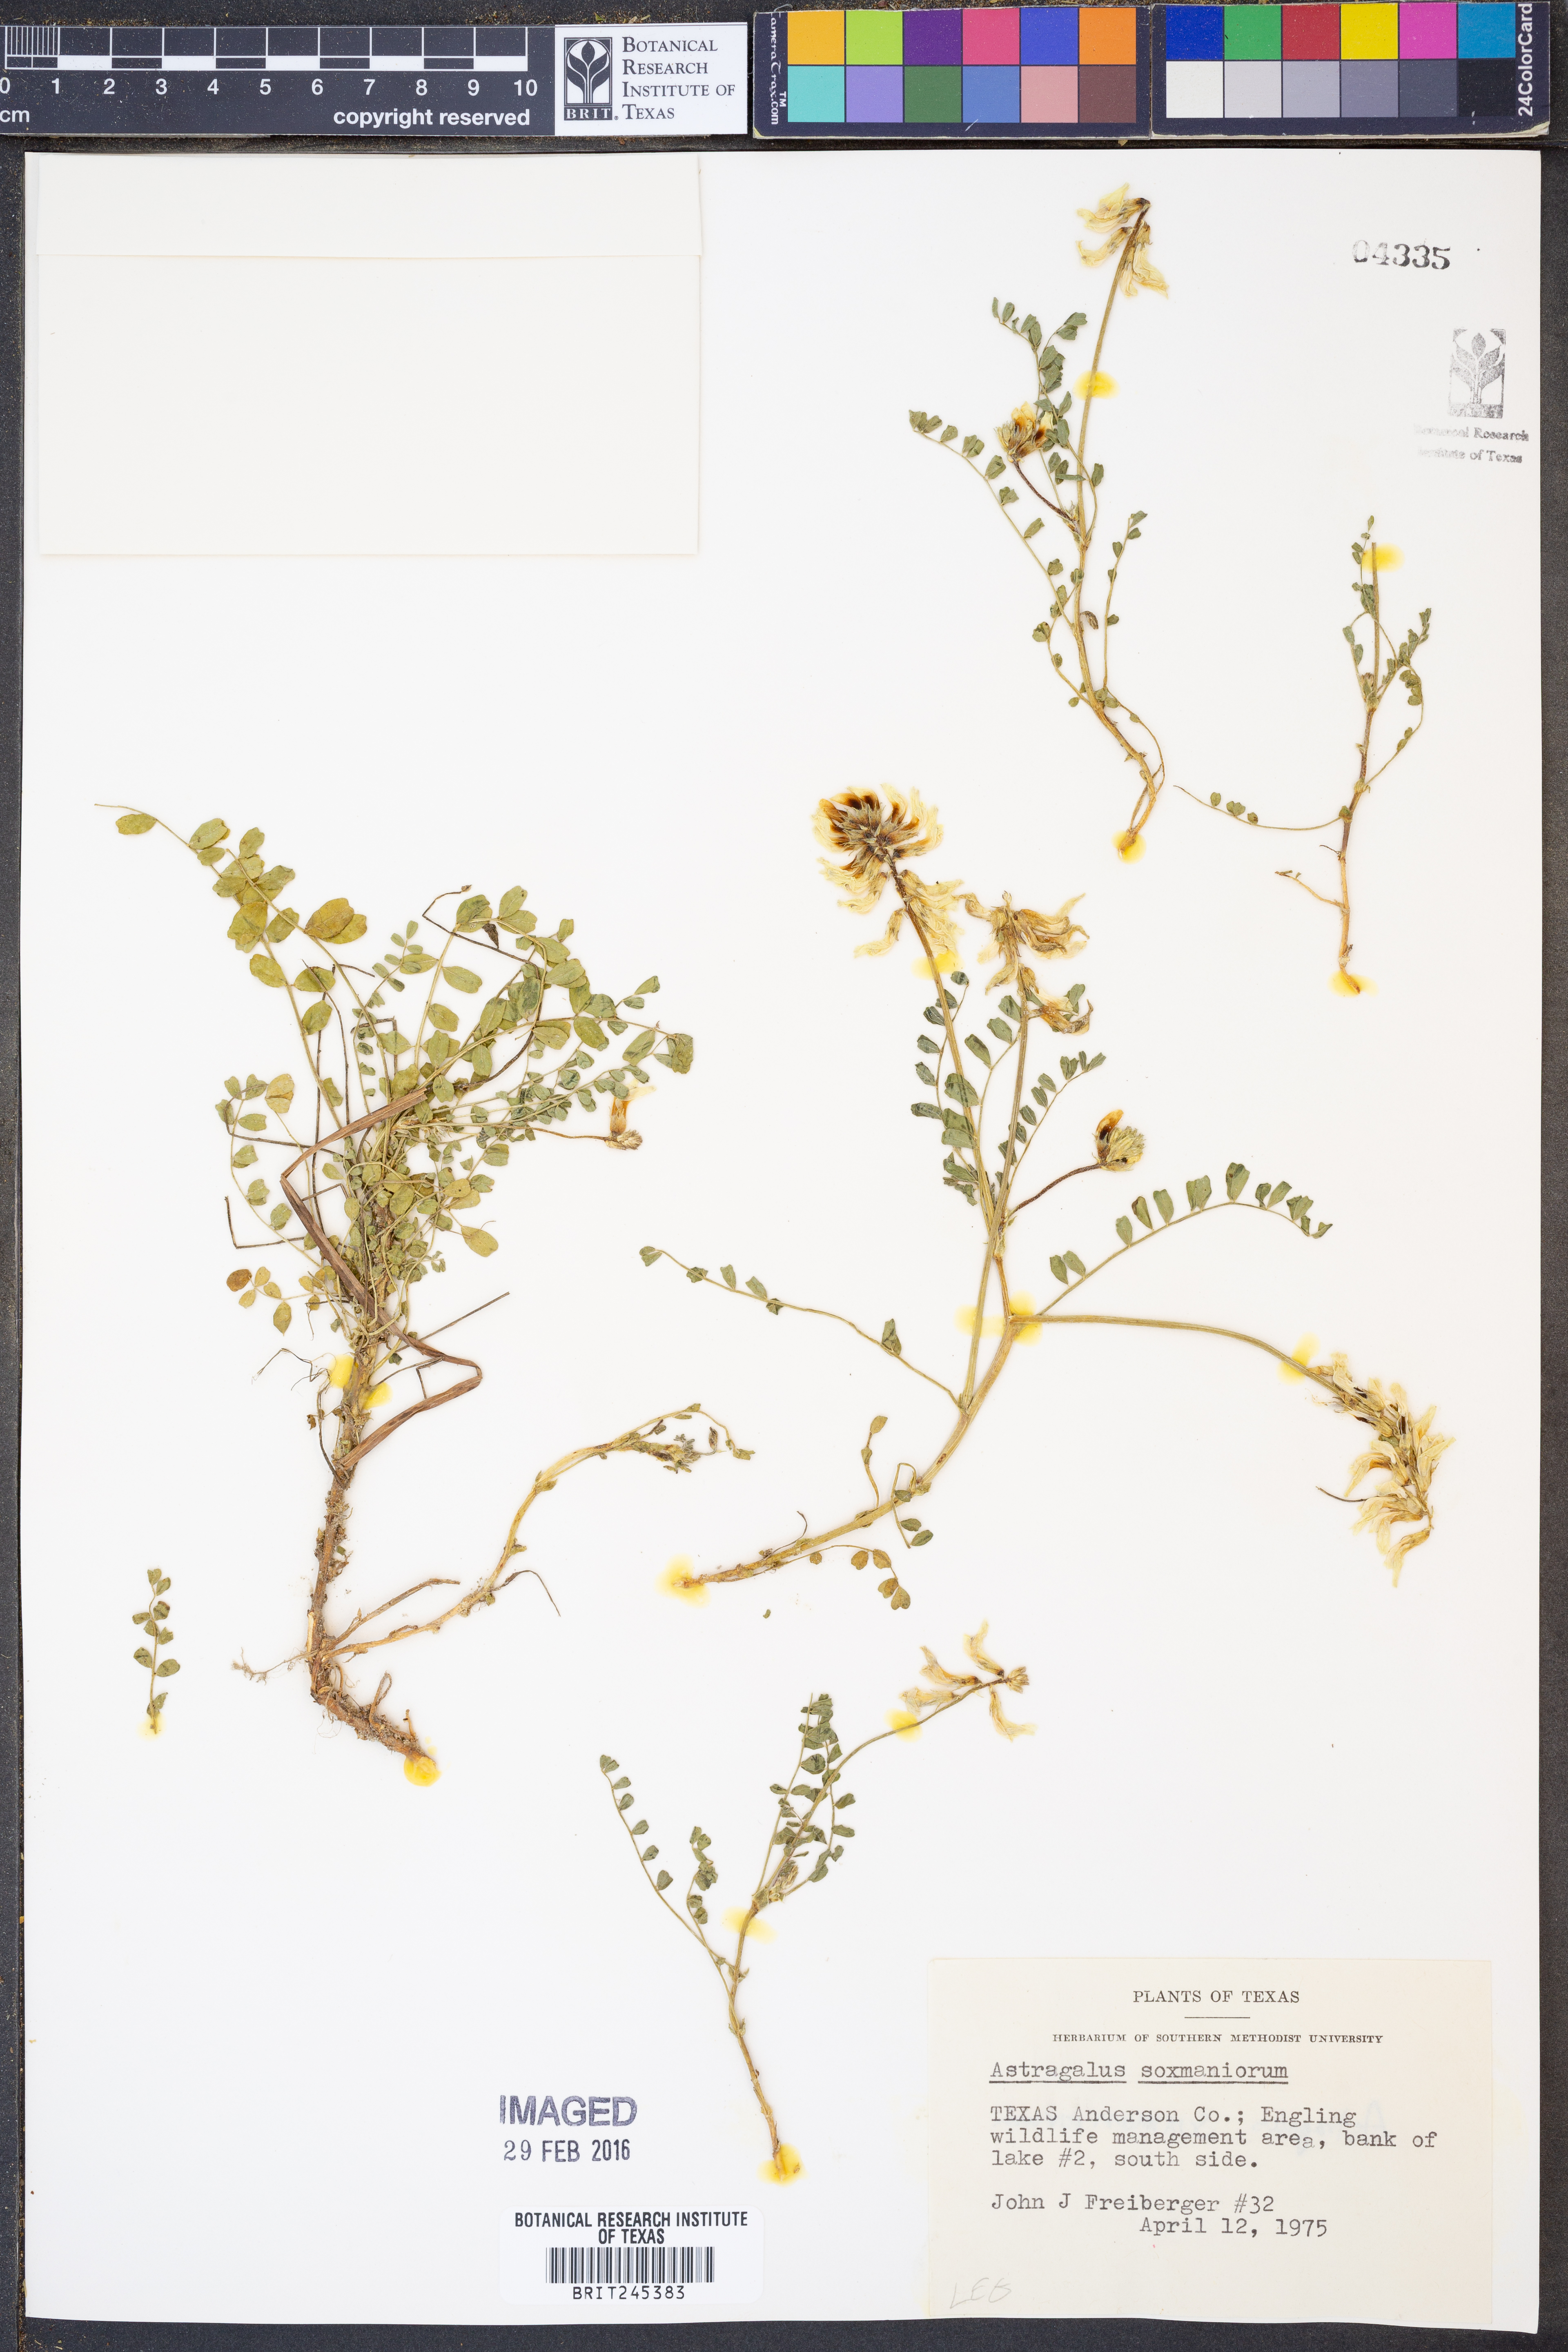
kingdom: Plantae
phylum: Tracheophyta
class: Magnoliopsida
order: Fabales
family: Fabaceae
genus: Astragalus
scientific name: Astragalus soxmaniorum
